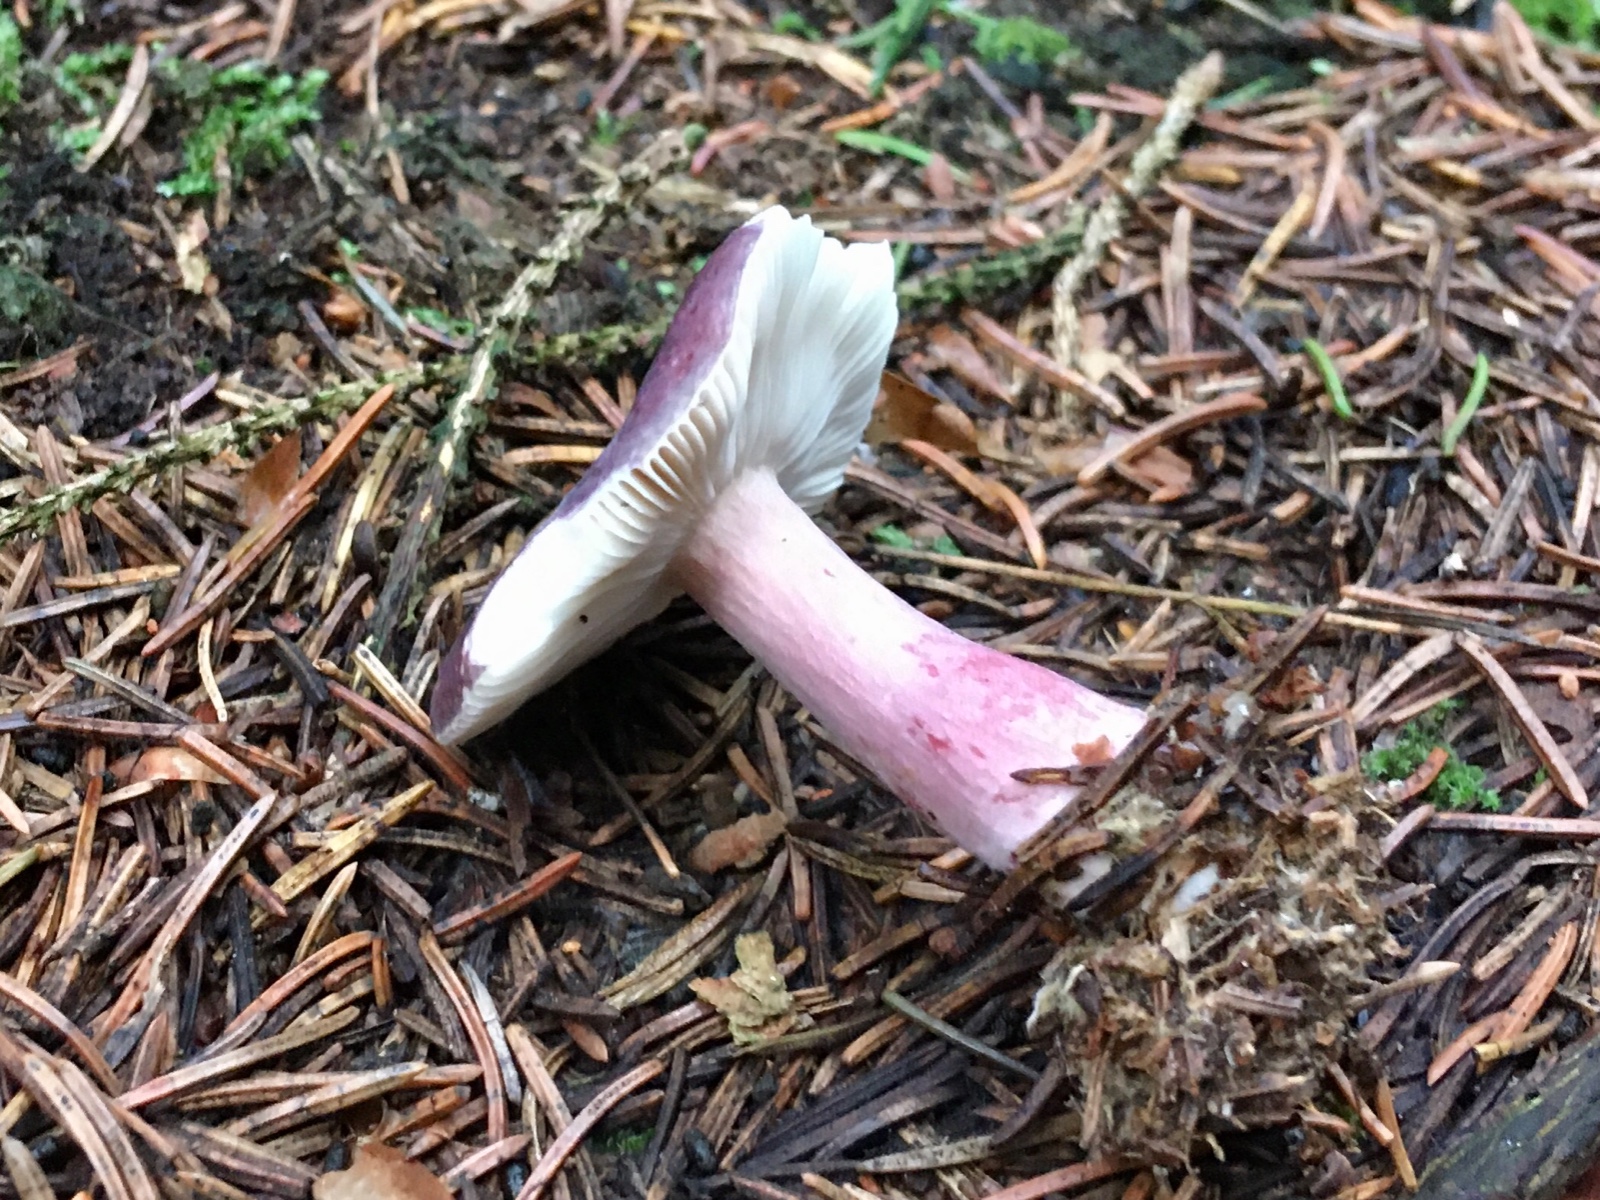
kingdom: Fungi
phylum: Basidiomycota
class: Agaricomycetes
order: Russulales
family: Russulaceae
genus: Russula
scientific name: Russula queletii
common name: Quélets skørhat
